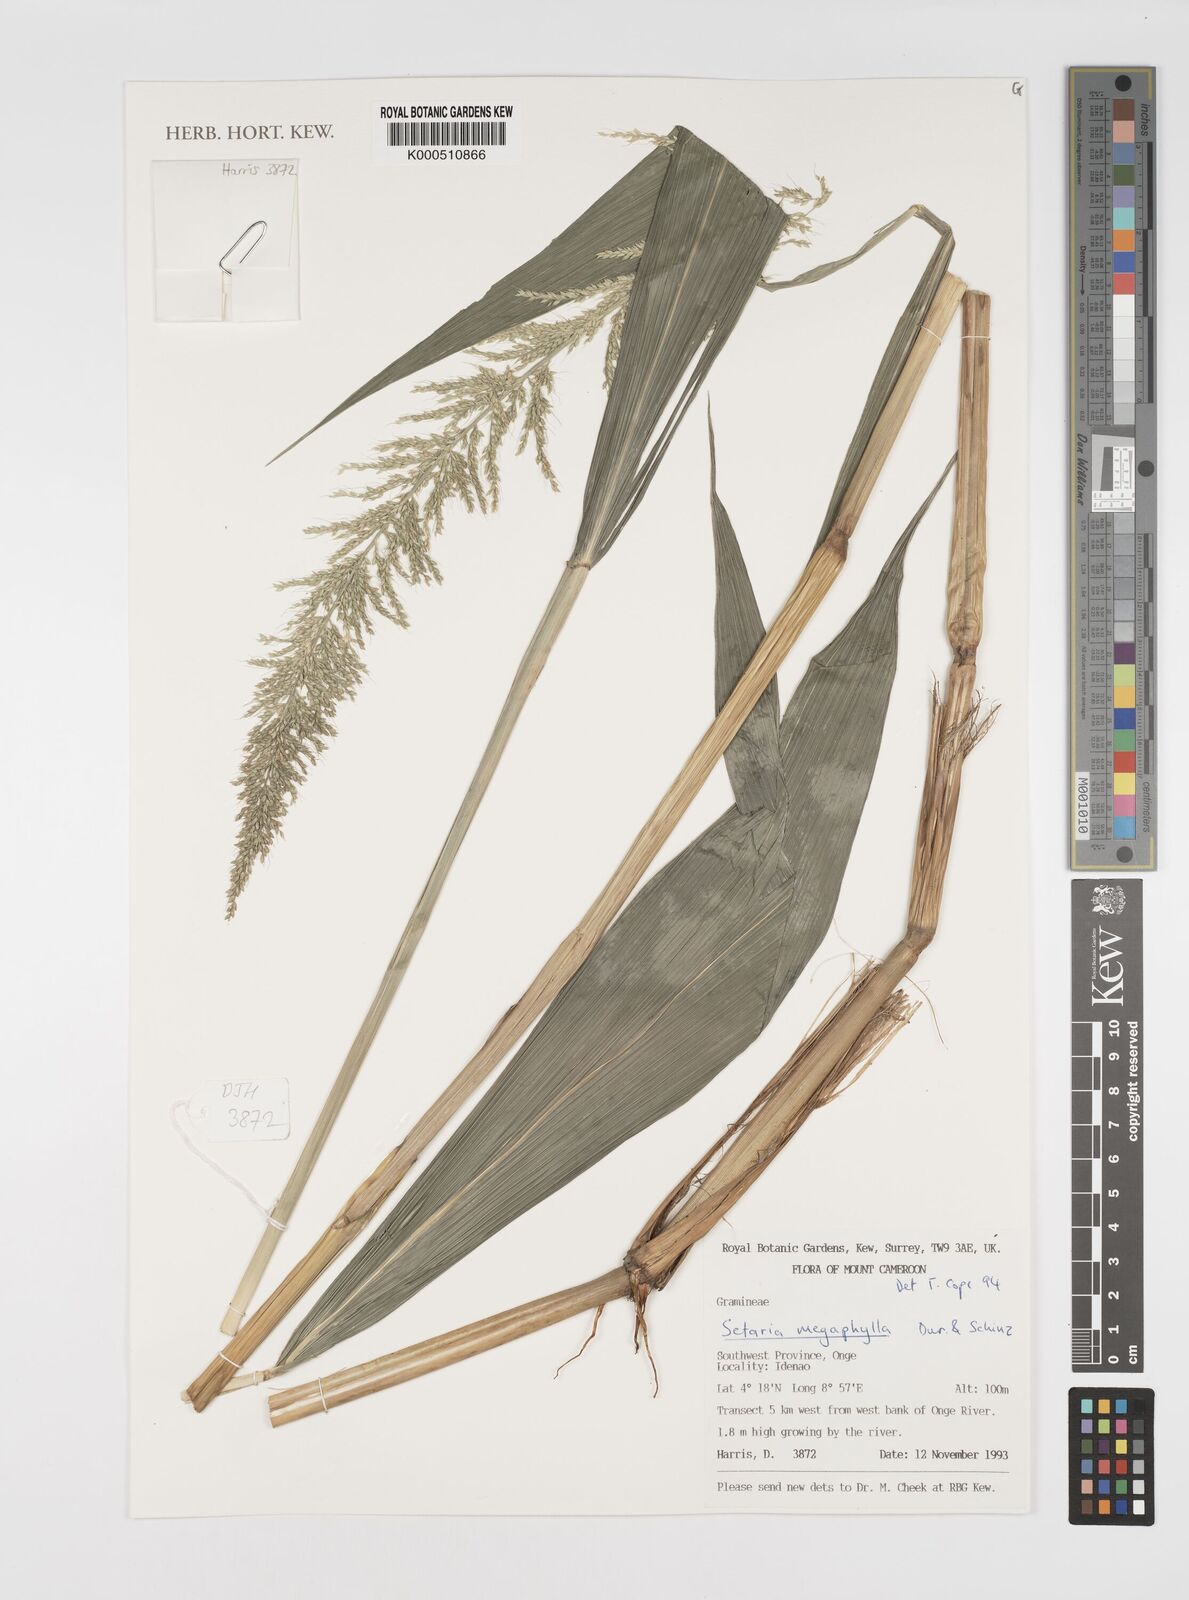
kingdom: Plantae
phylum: Tracheophyta
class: Liliopsida
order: Poales
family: Poaceae
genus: Setaria
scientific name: Setaria megaphylla
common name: Bigleaf bristlegrass
